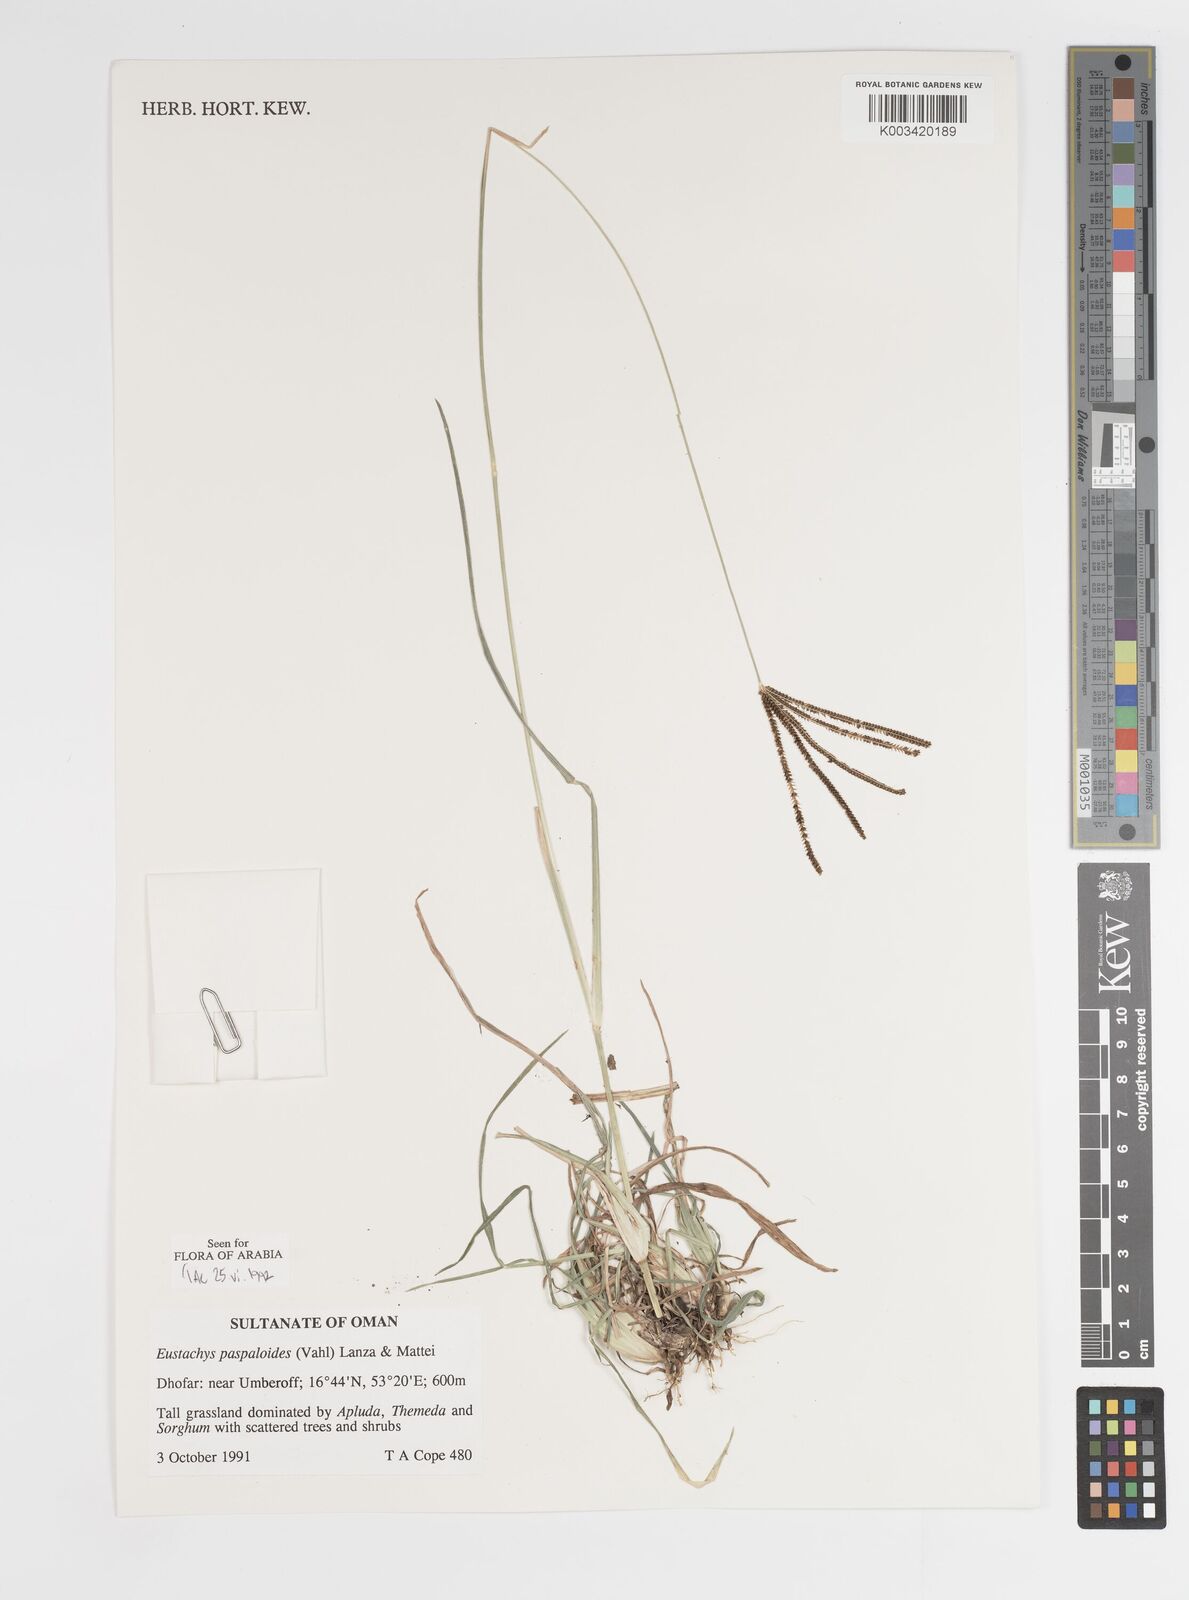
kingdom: Plantae
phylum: Tracheophyta
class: Liliopsida
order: Poales
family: Poaceae
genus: Eustachys
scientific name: Eustachys paspaloides
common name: Caribbean fingergrass
